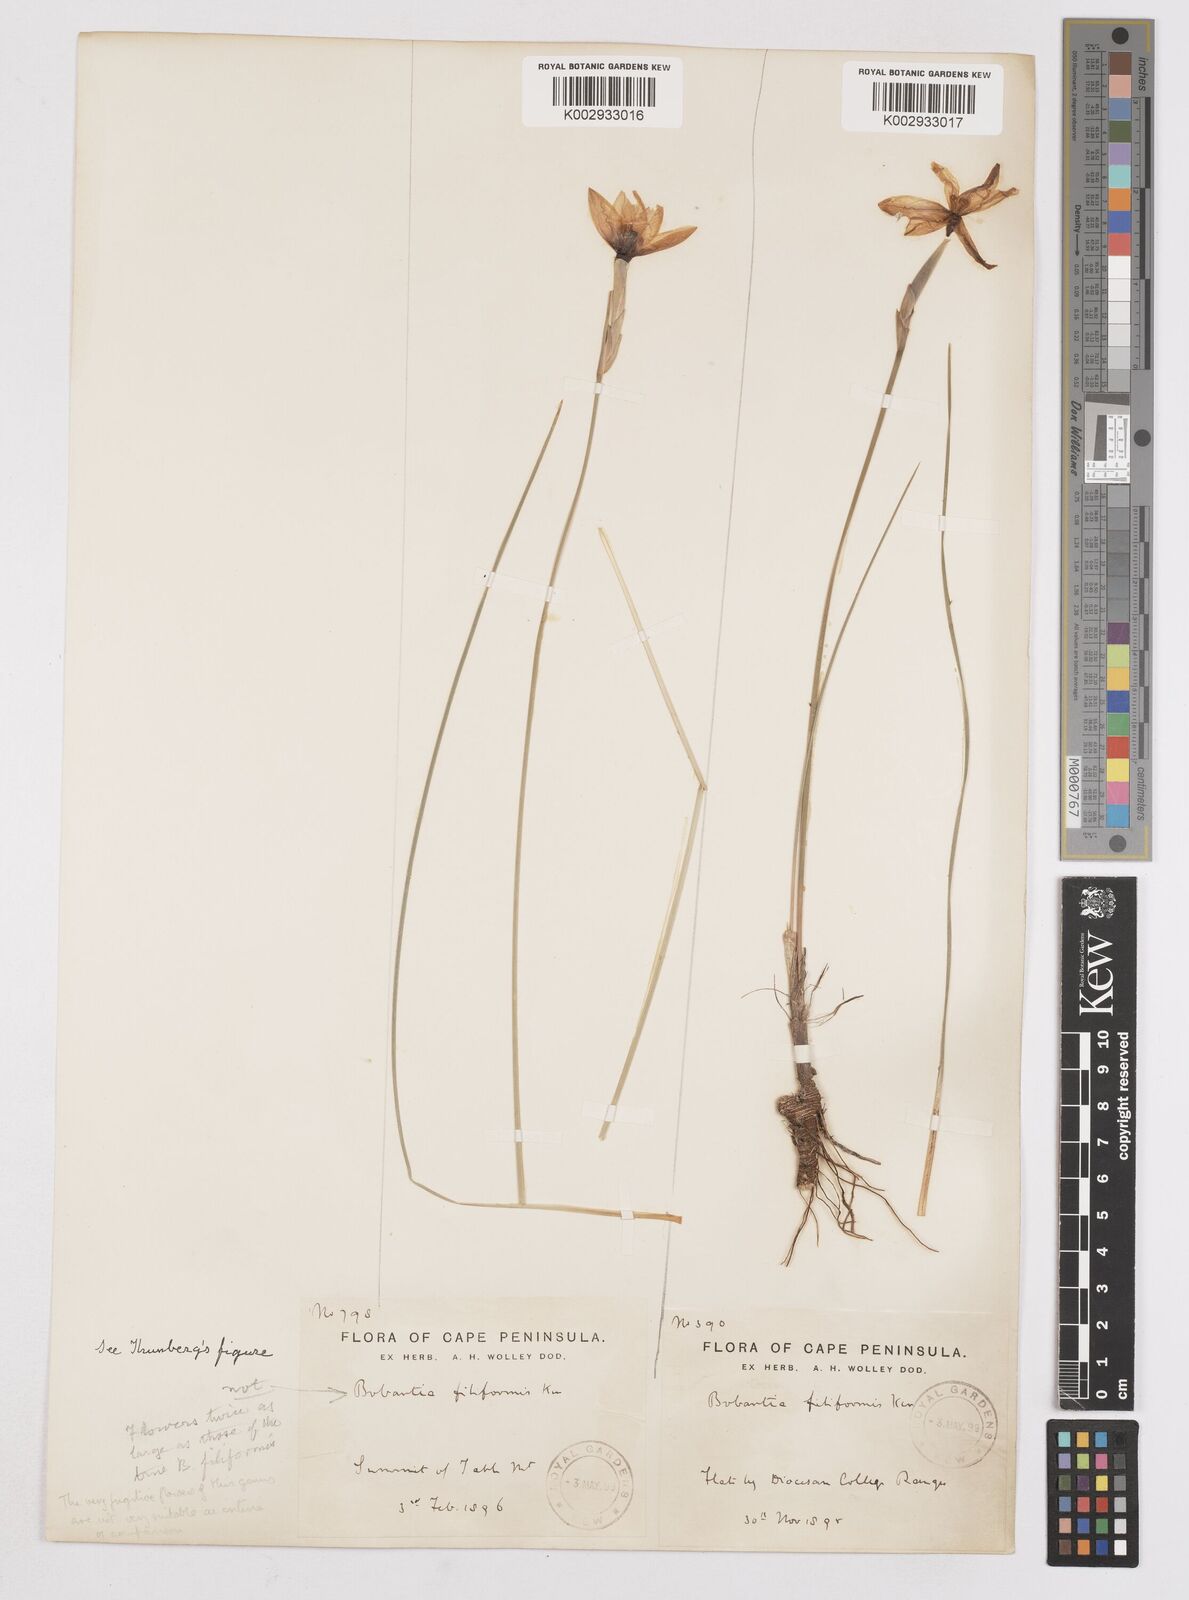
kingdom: Plantae
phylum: Tracheophyta
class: Liliopsida
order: Asparagales
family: Iridaceae
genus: Bobartia
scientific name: Bobartia filiformis
